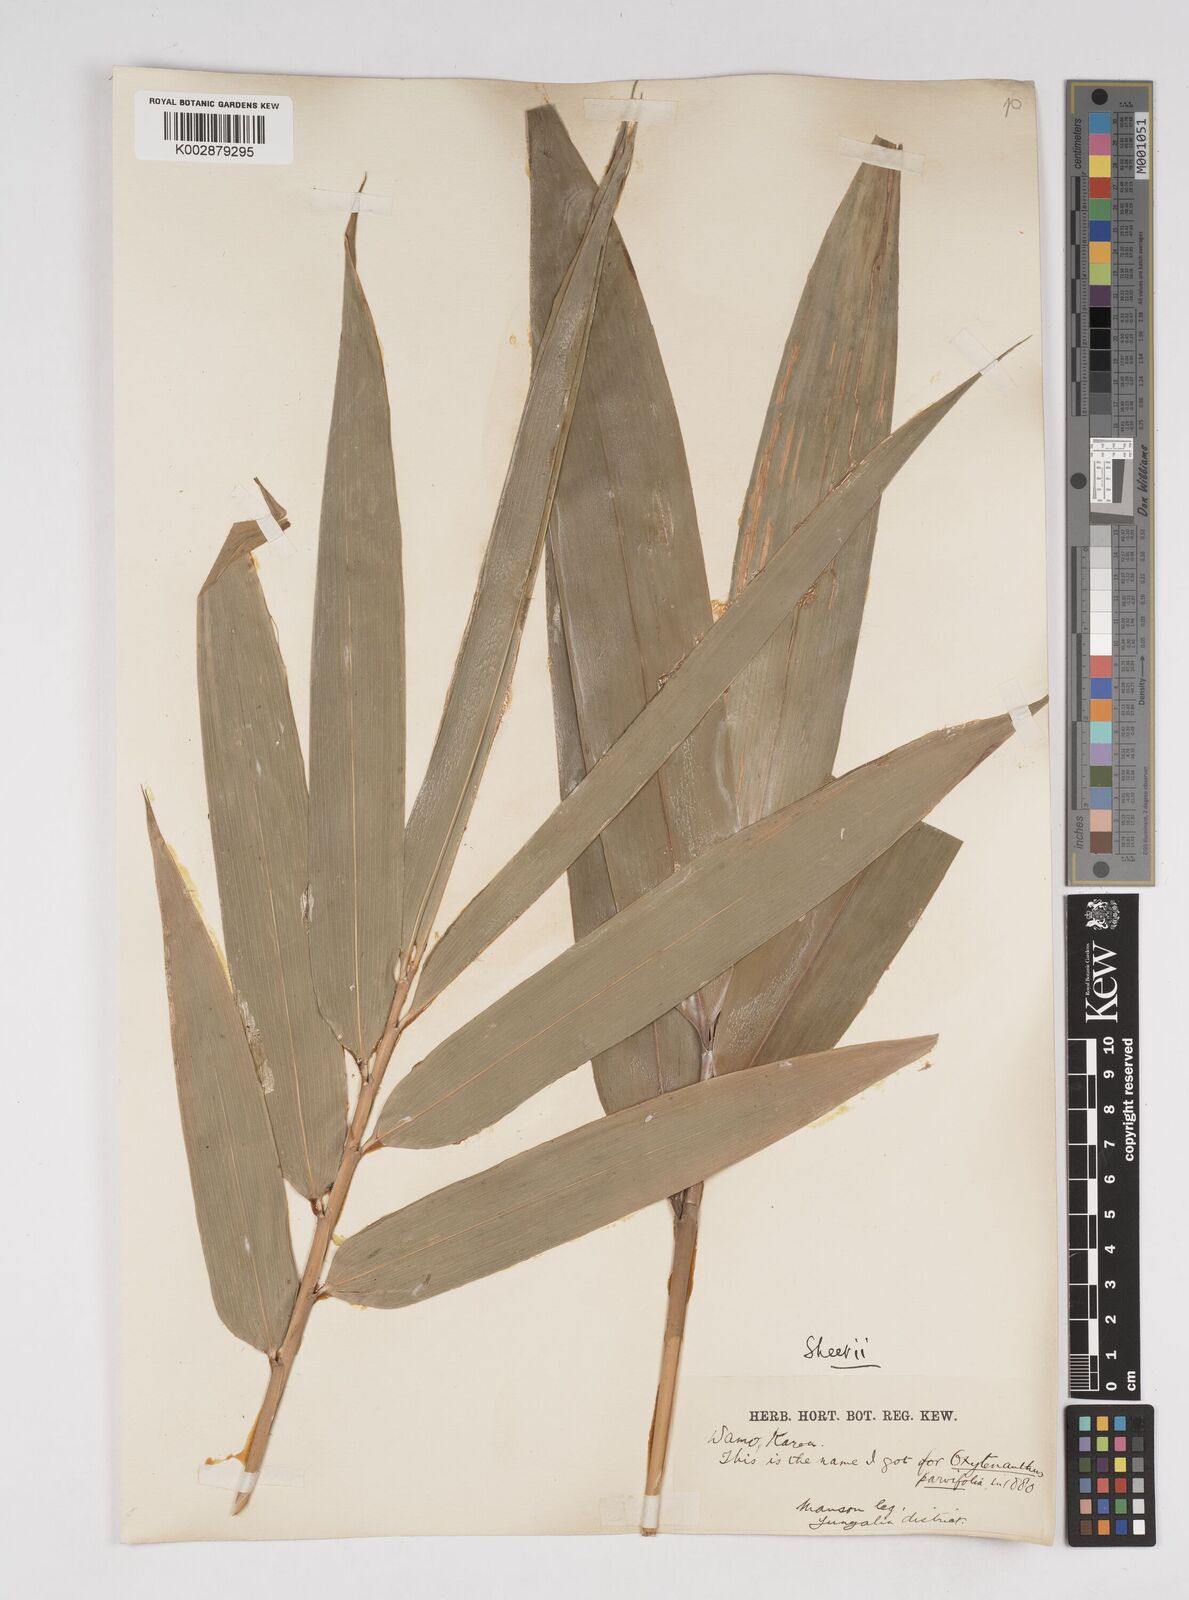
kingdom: Plantae
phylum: Tracheophyta
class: Liliopsida
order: Poales
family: Poaceae
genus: Dendrocalamus
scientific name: Dendrocalamus
